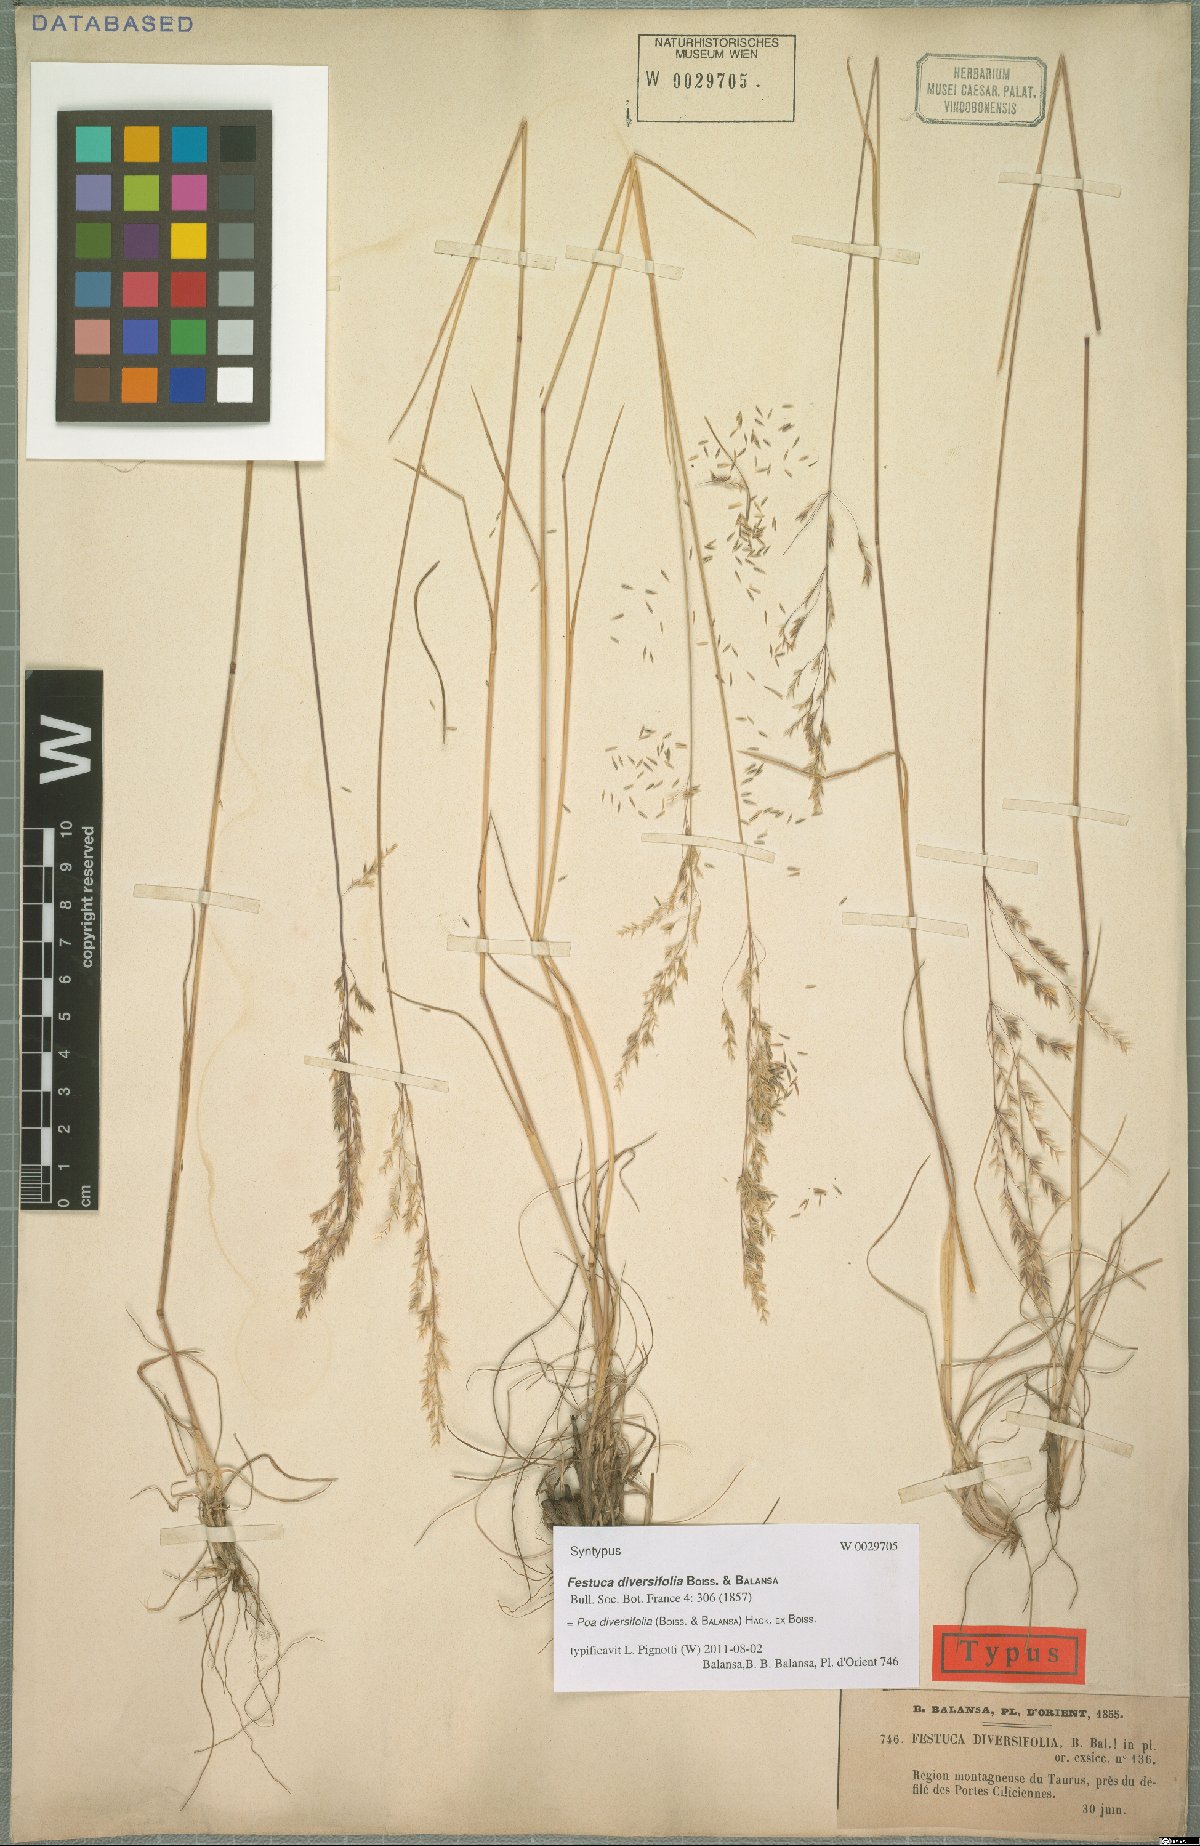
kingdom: Plantae
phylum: Tracheophyta
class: Liliopsida
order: Poales
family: Poaceae
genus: Poa
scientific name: Poa diversifolia
